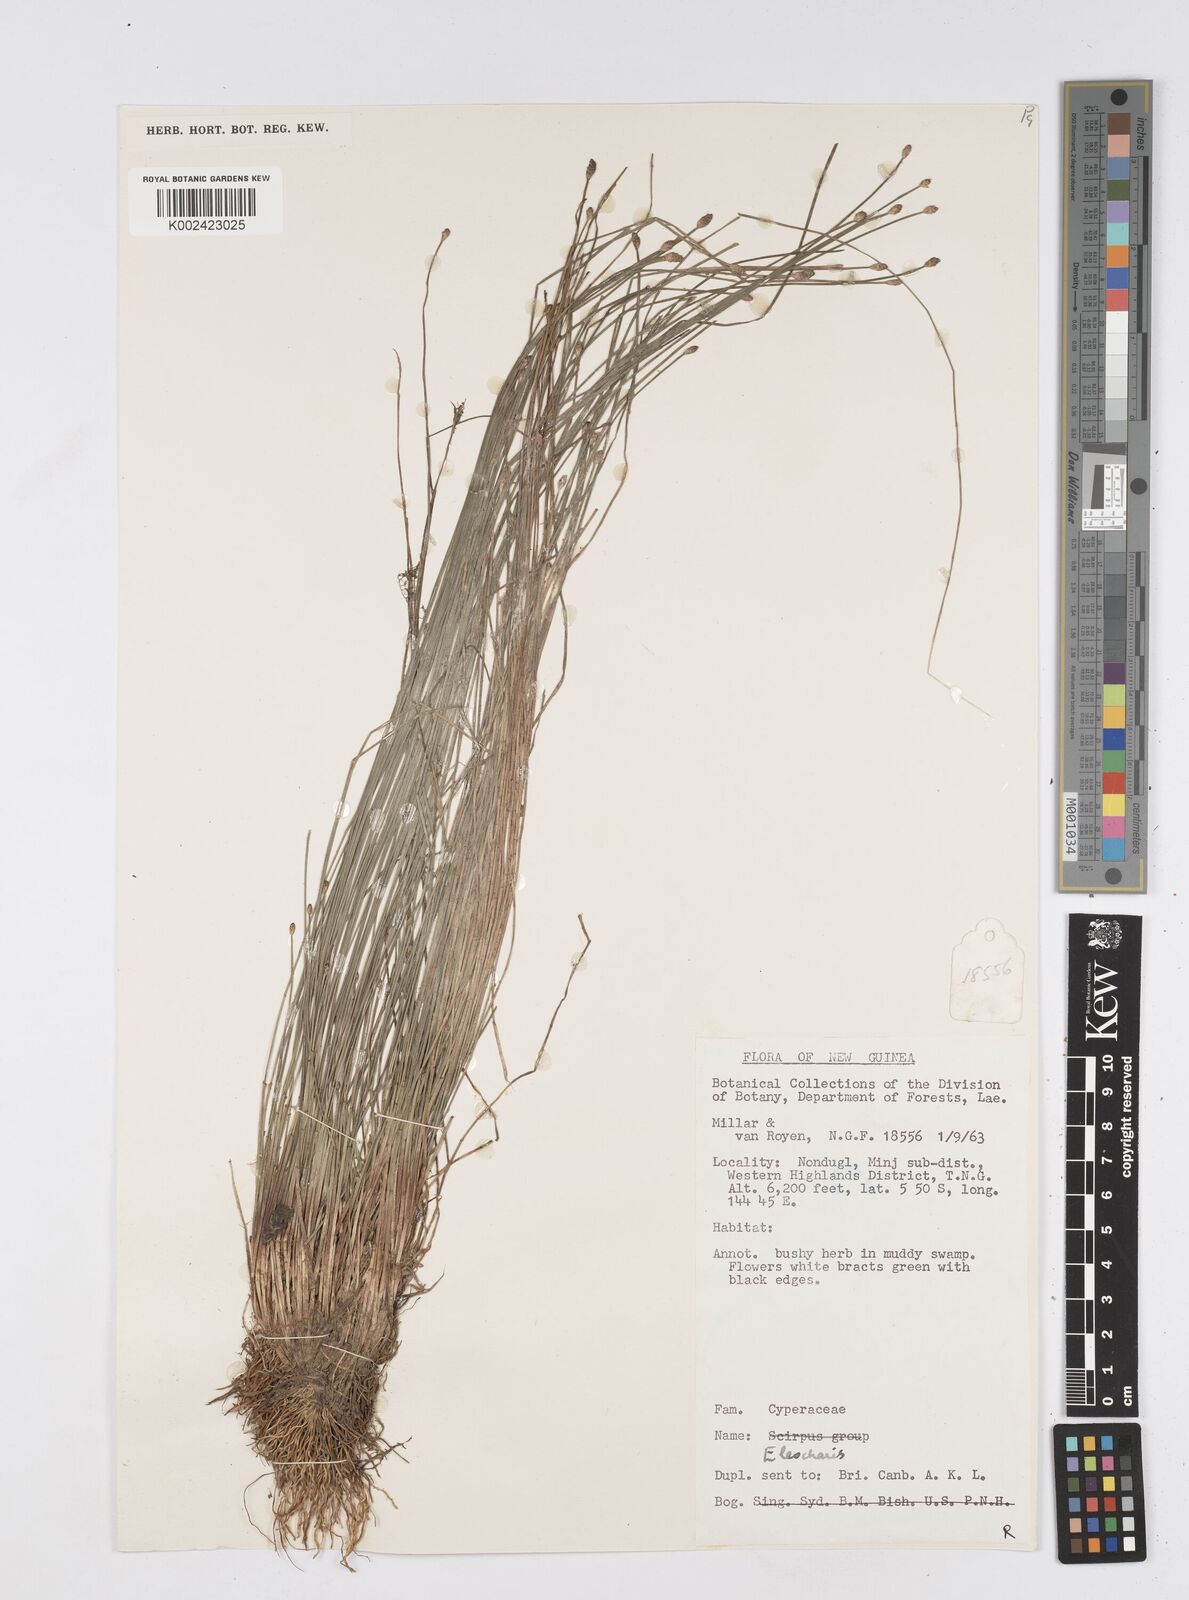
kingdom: Plantae
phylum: Tracheophyta
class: Liliopsida
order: Poales
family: Cyperaceae
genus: Eleocharis
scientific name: Eleocharis
